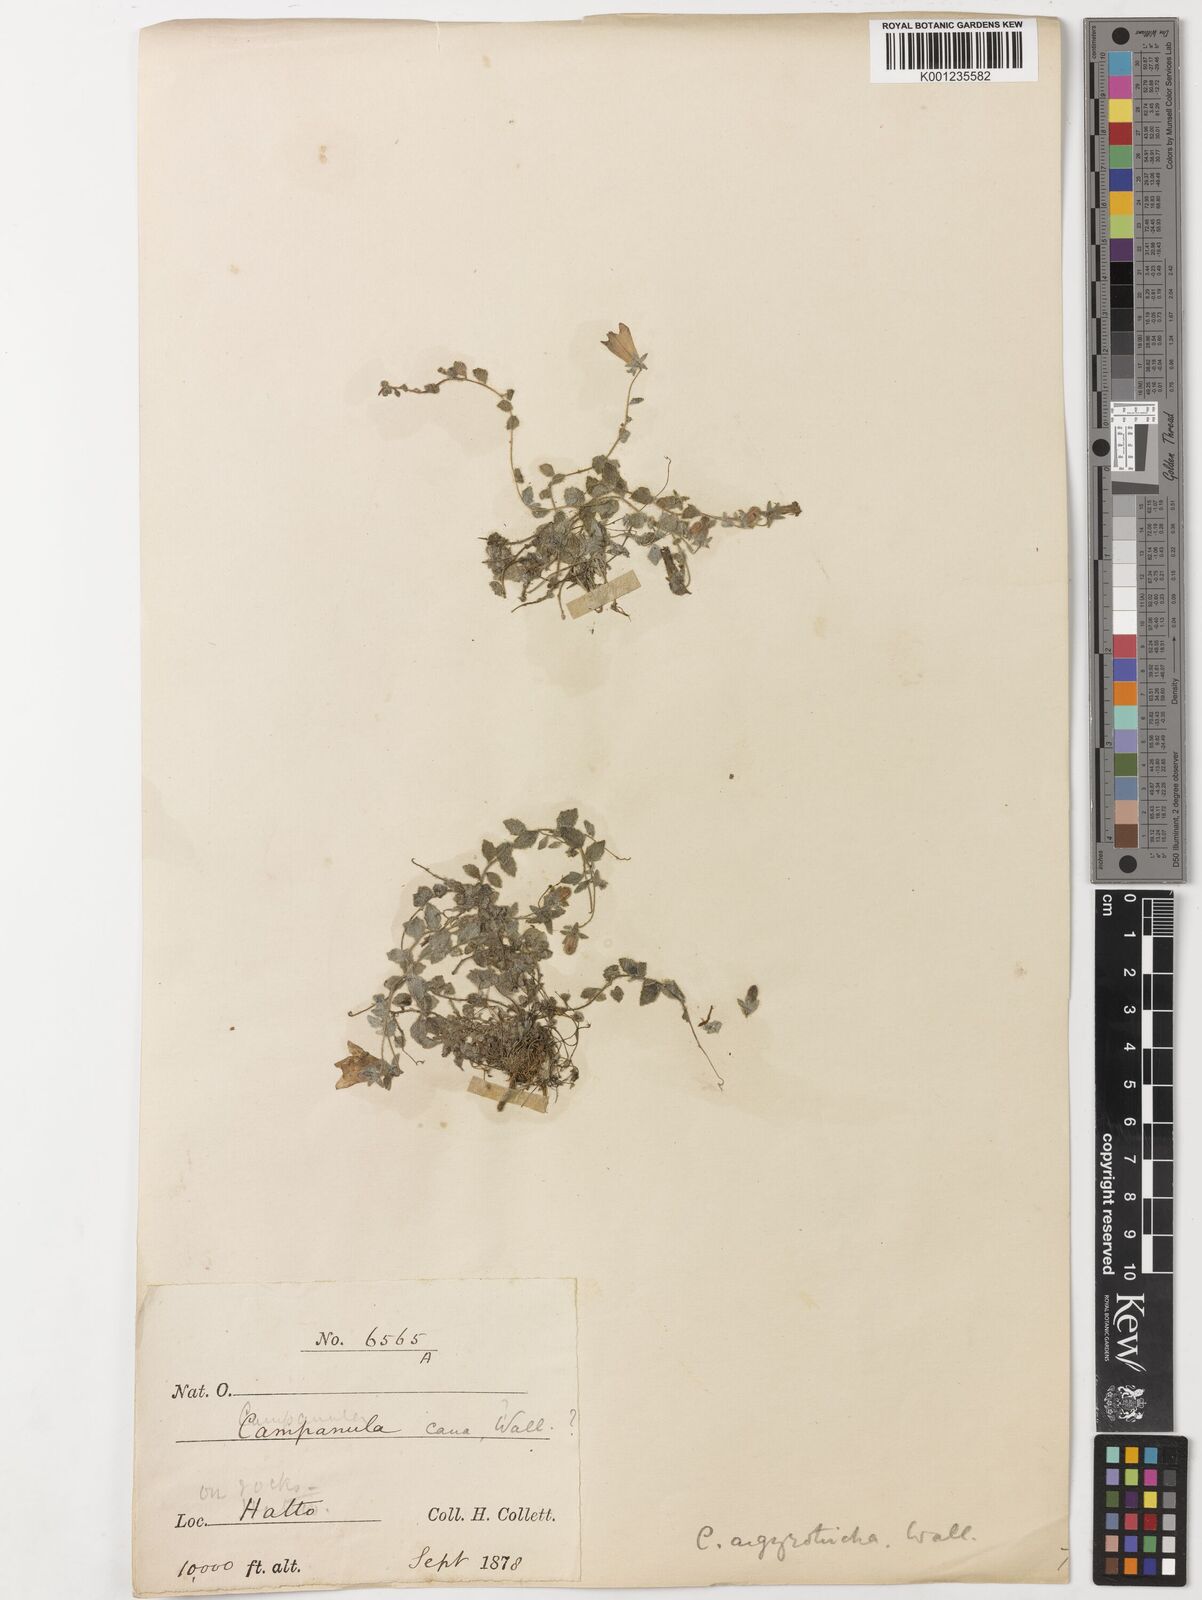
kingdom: Plantae
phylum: Tracheophyta
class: Magnoliopsida
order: Asterales
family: Campanulaceae
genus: Campanula
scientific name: Campanula argyrotricha
